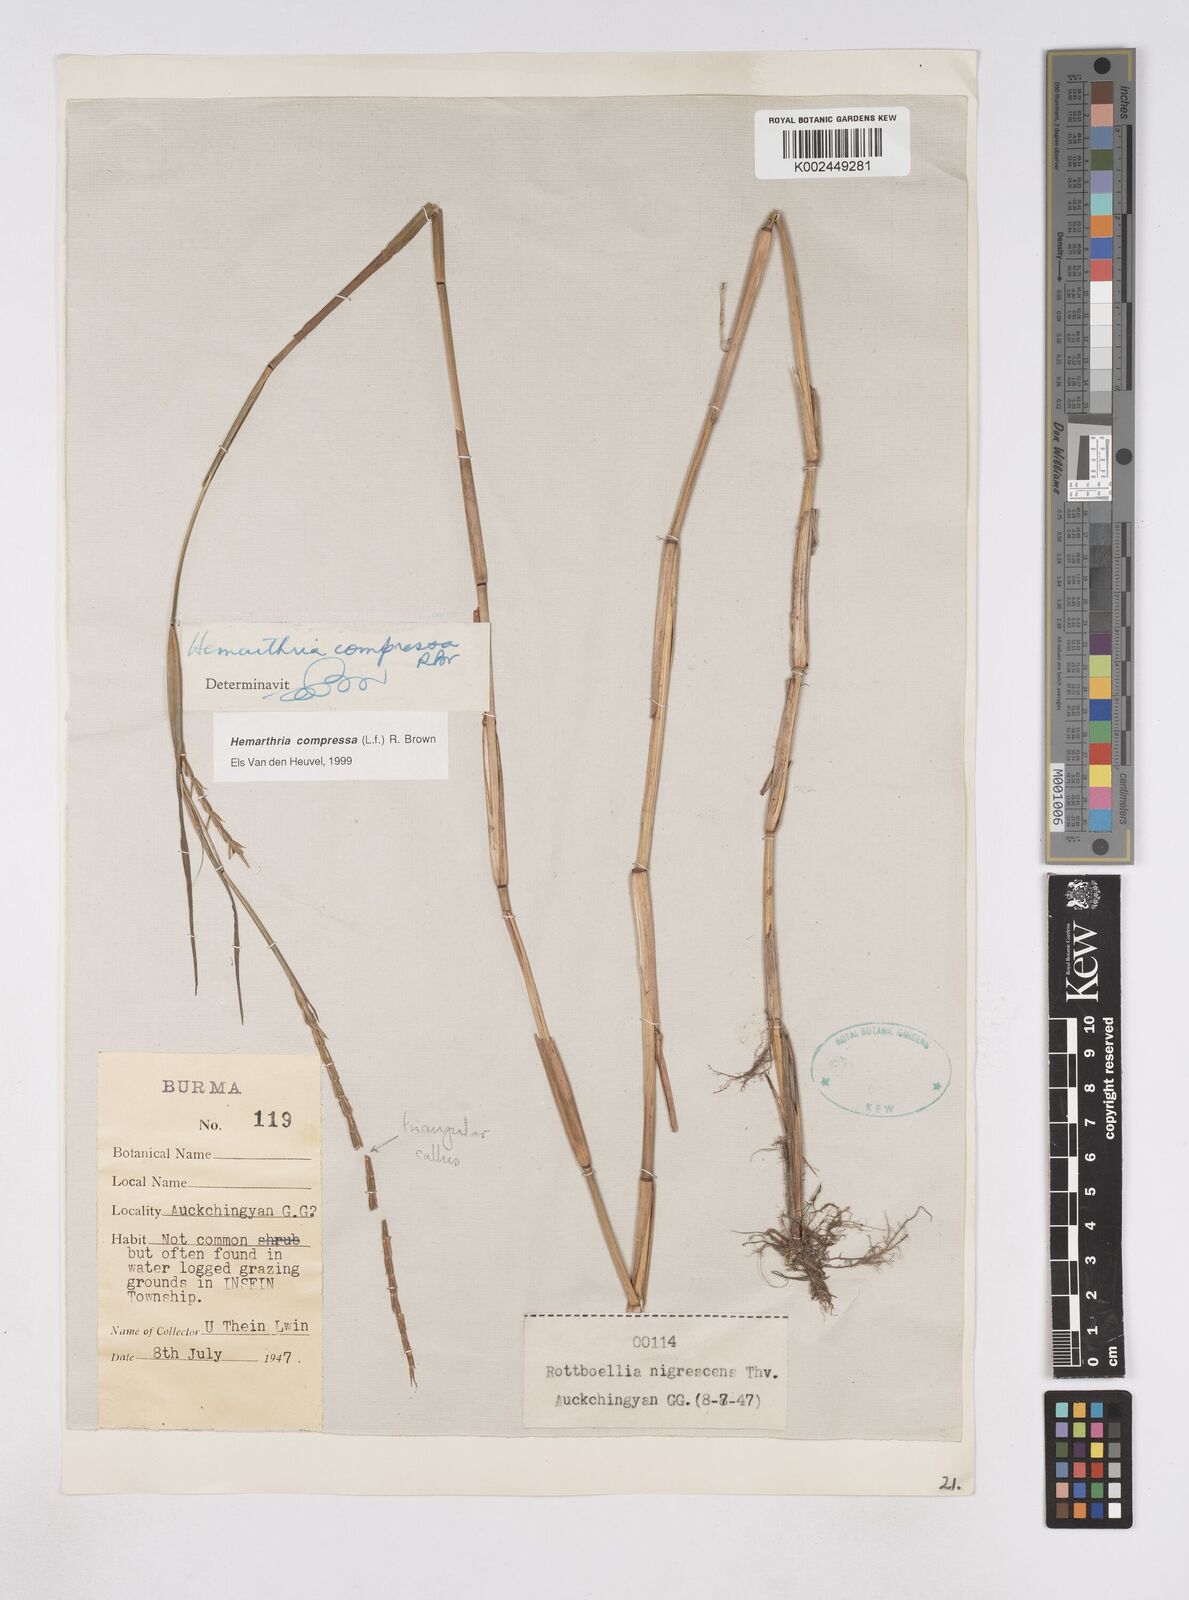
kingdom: Plantae
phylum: Tracheophyta
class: Liliopsida
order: Poales
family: Poaceae
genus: Hemarthria
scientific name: Hemarthria compressa
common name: Whip grass
